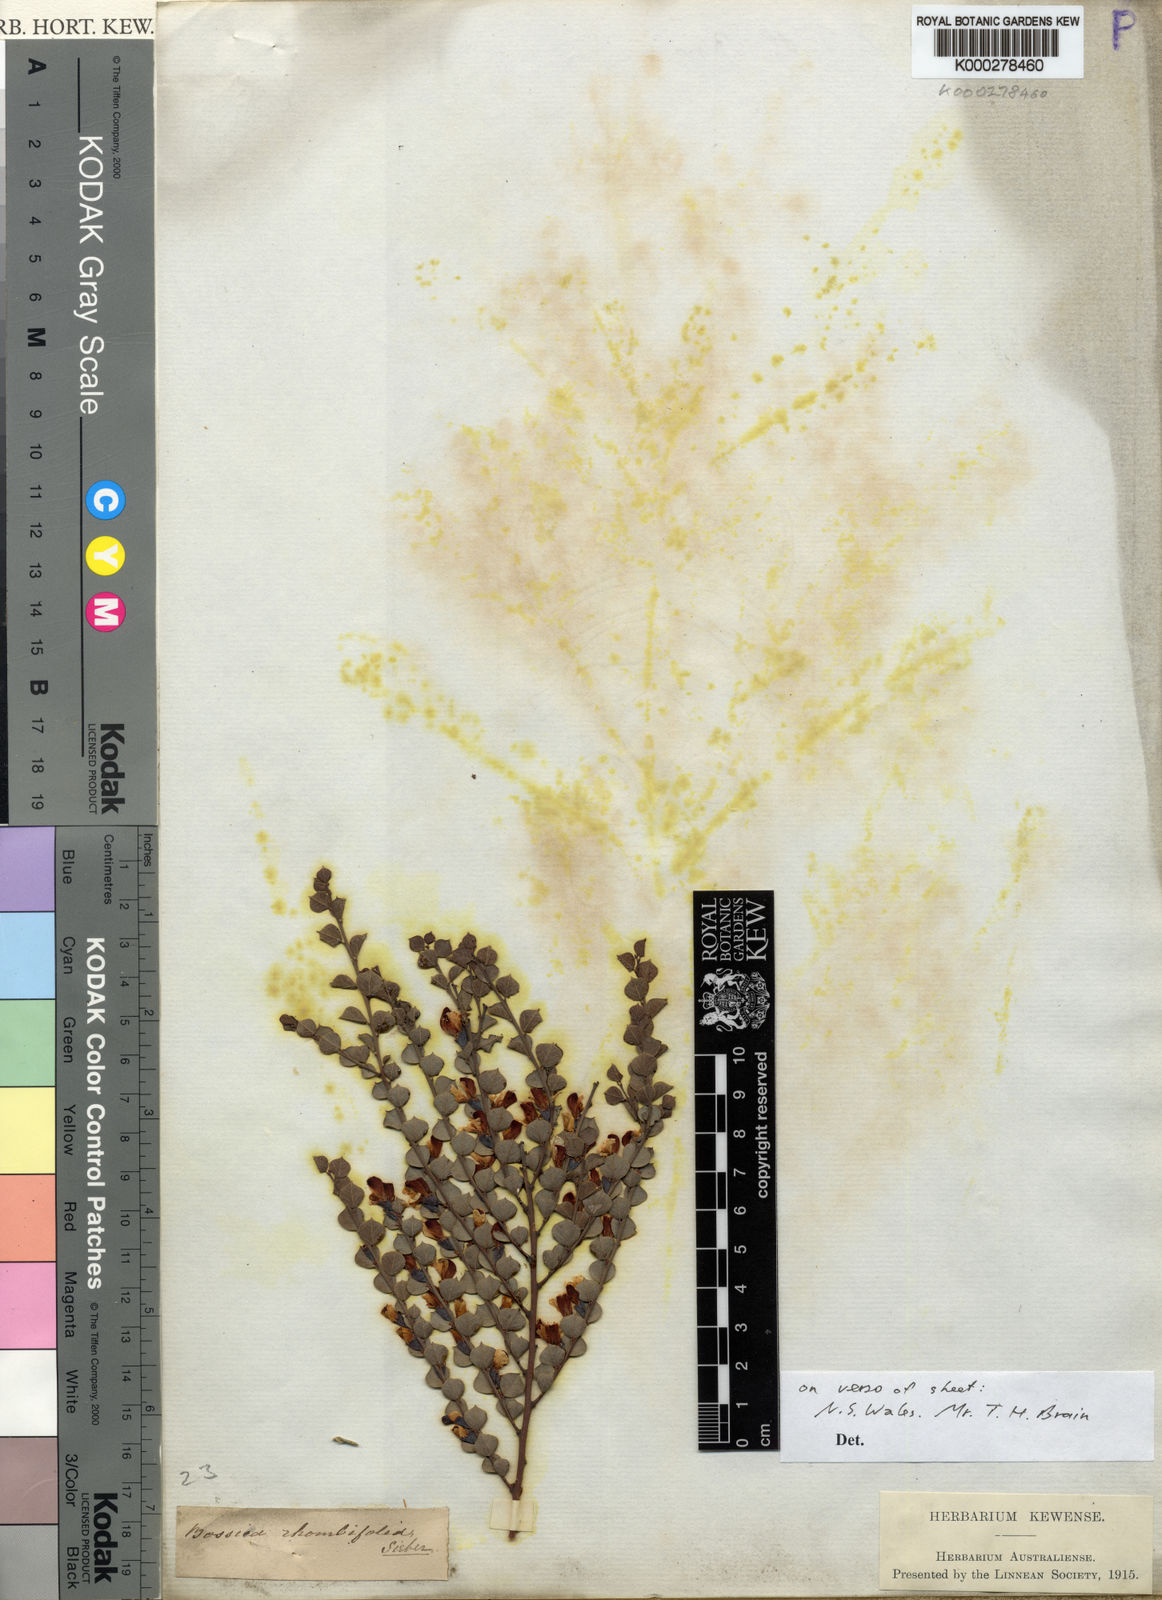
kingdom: Plantae
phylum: Tracheophyta
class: Magnoliopsida
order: Fabales
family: Fabaceae
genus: Bossiaea
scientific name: Bossiaea rhombifolia
